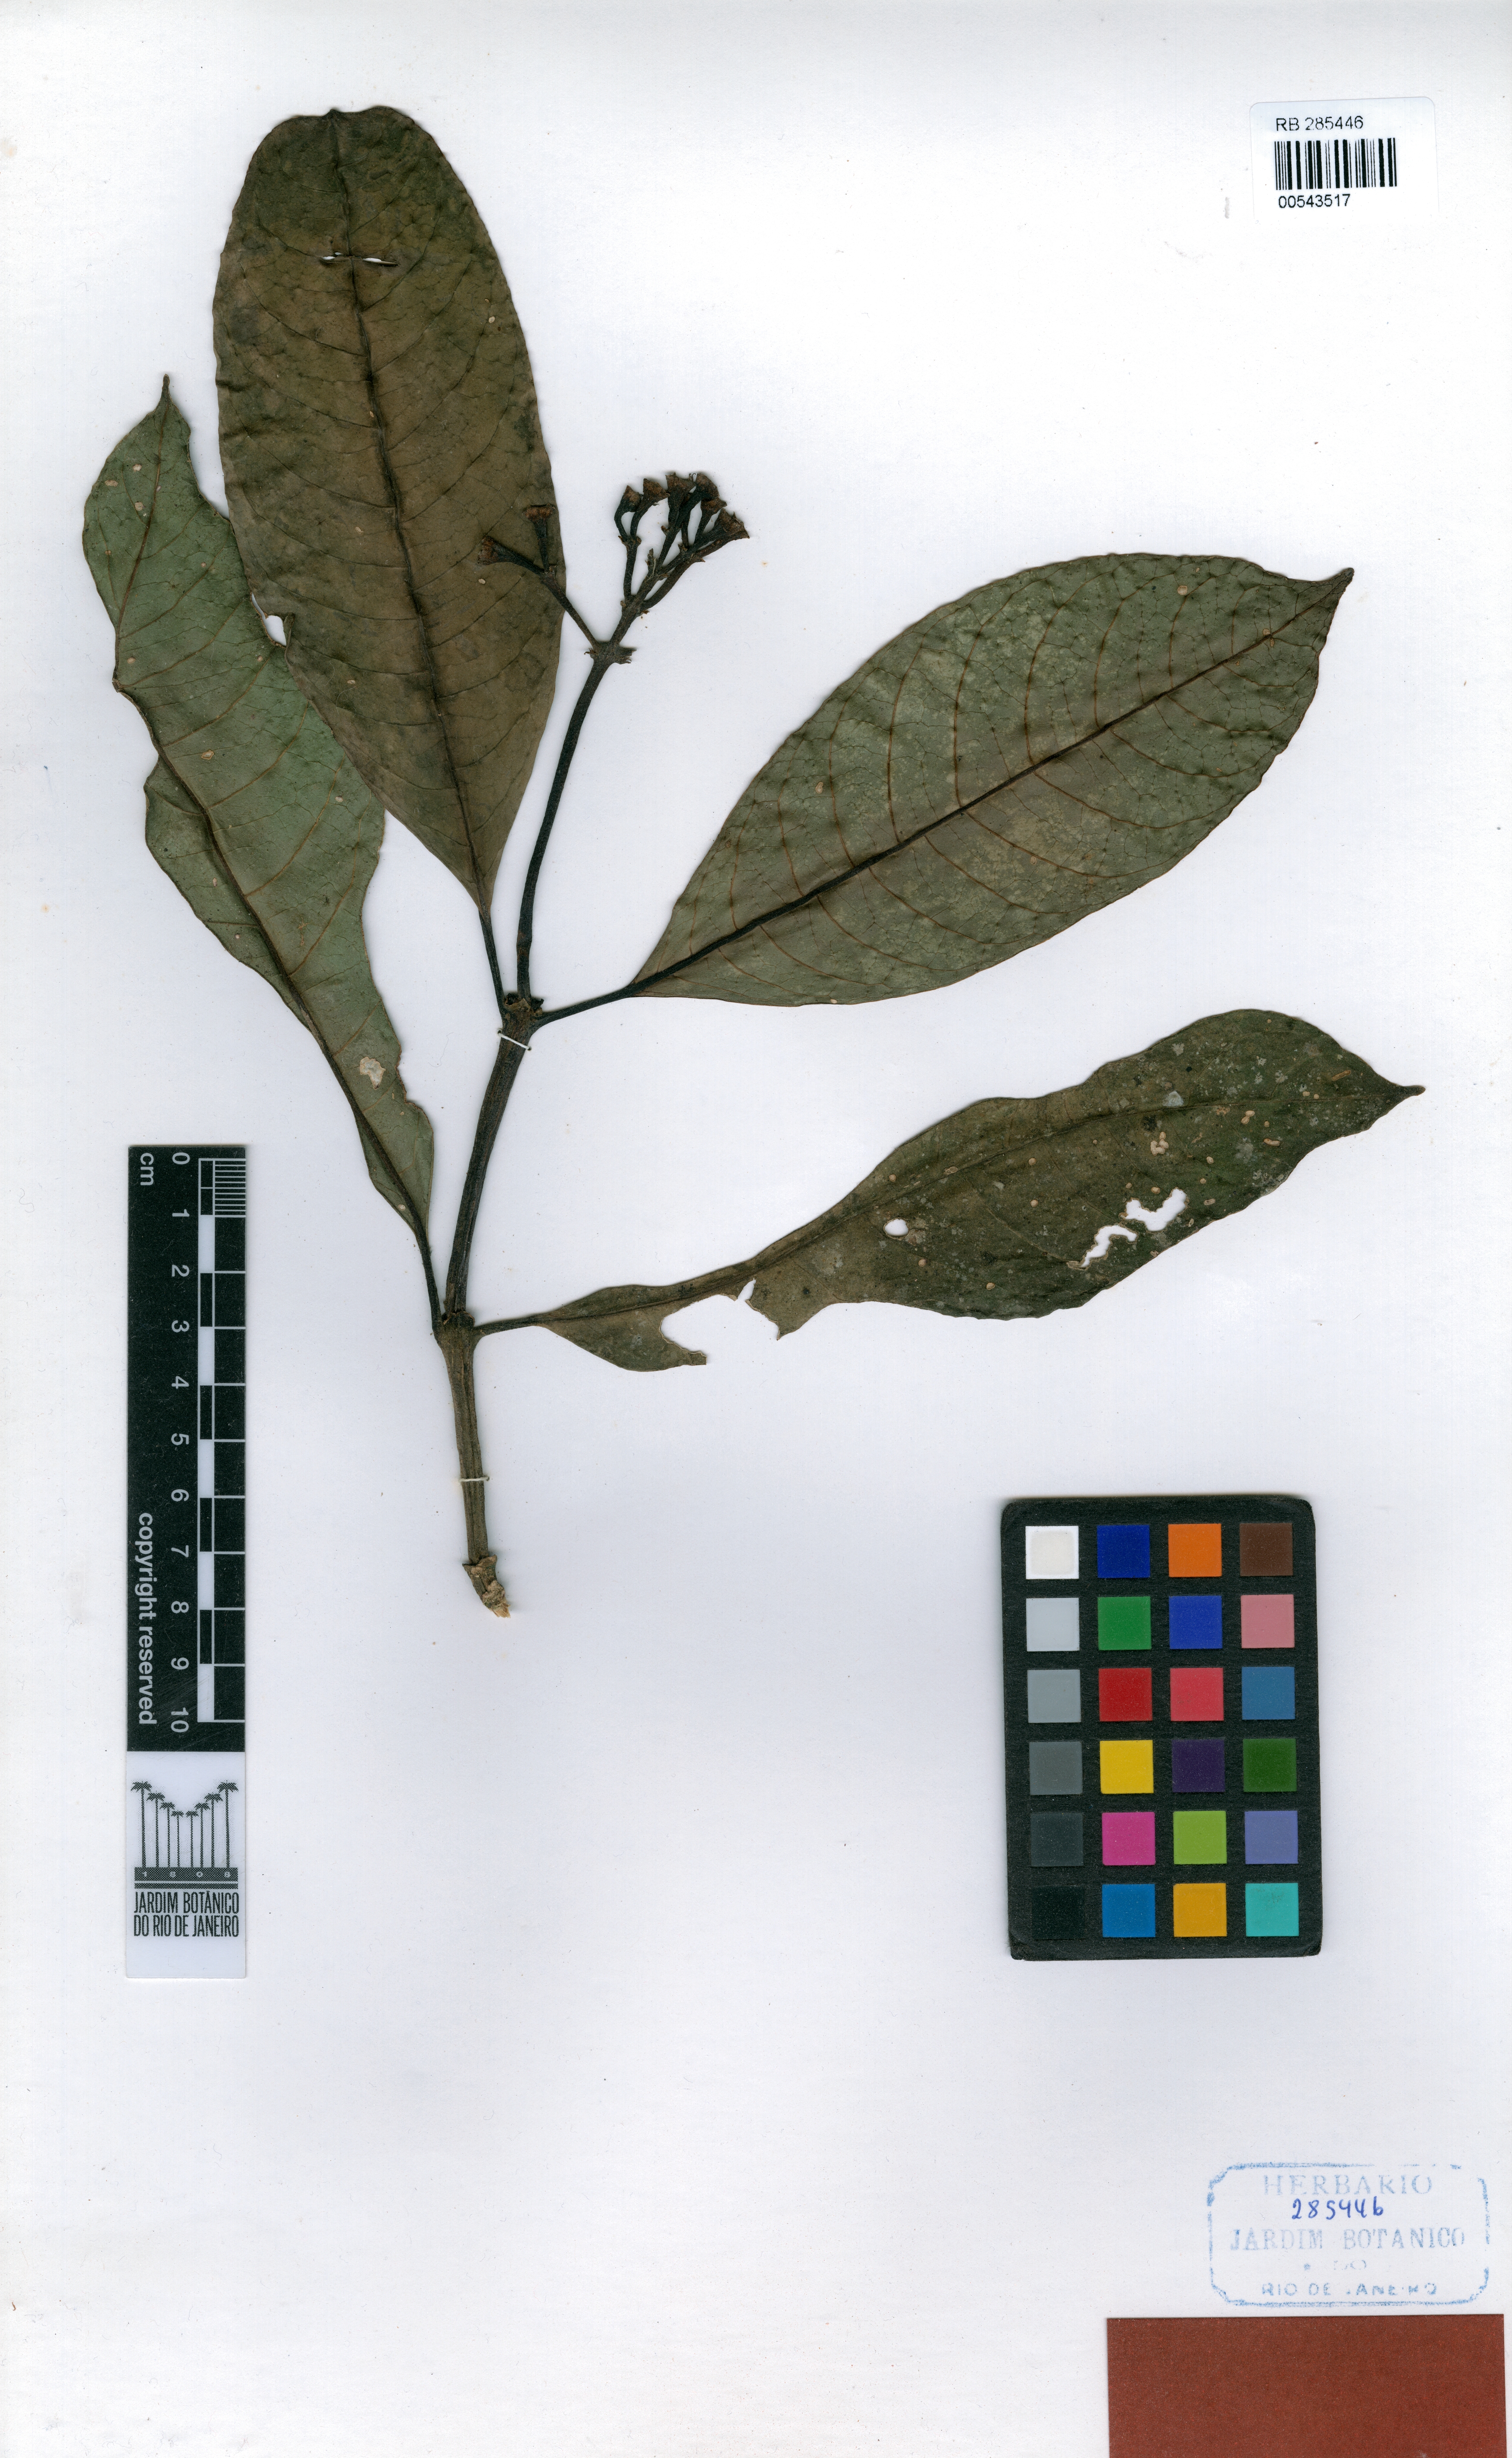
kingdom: Plantae
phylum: Tracheophyta
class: Magnoliopsida
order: Gentianales
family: Rubiaceae
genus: Coussarea
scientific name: Coussarea friburgensis
